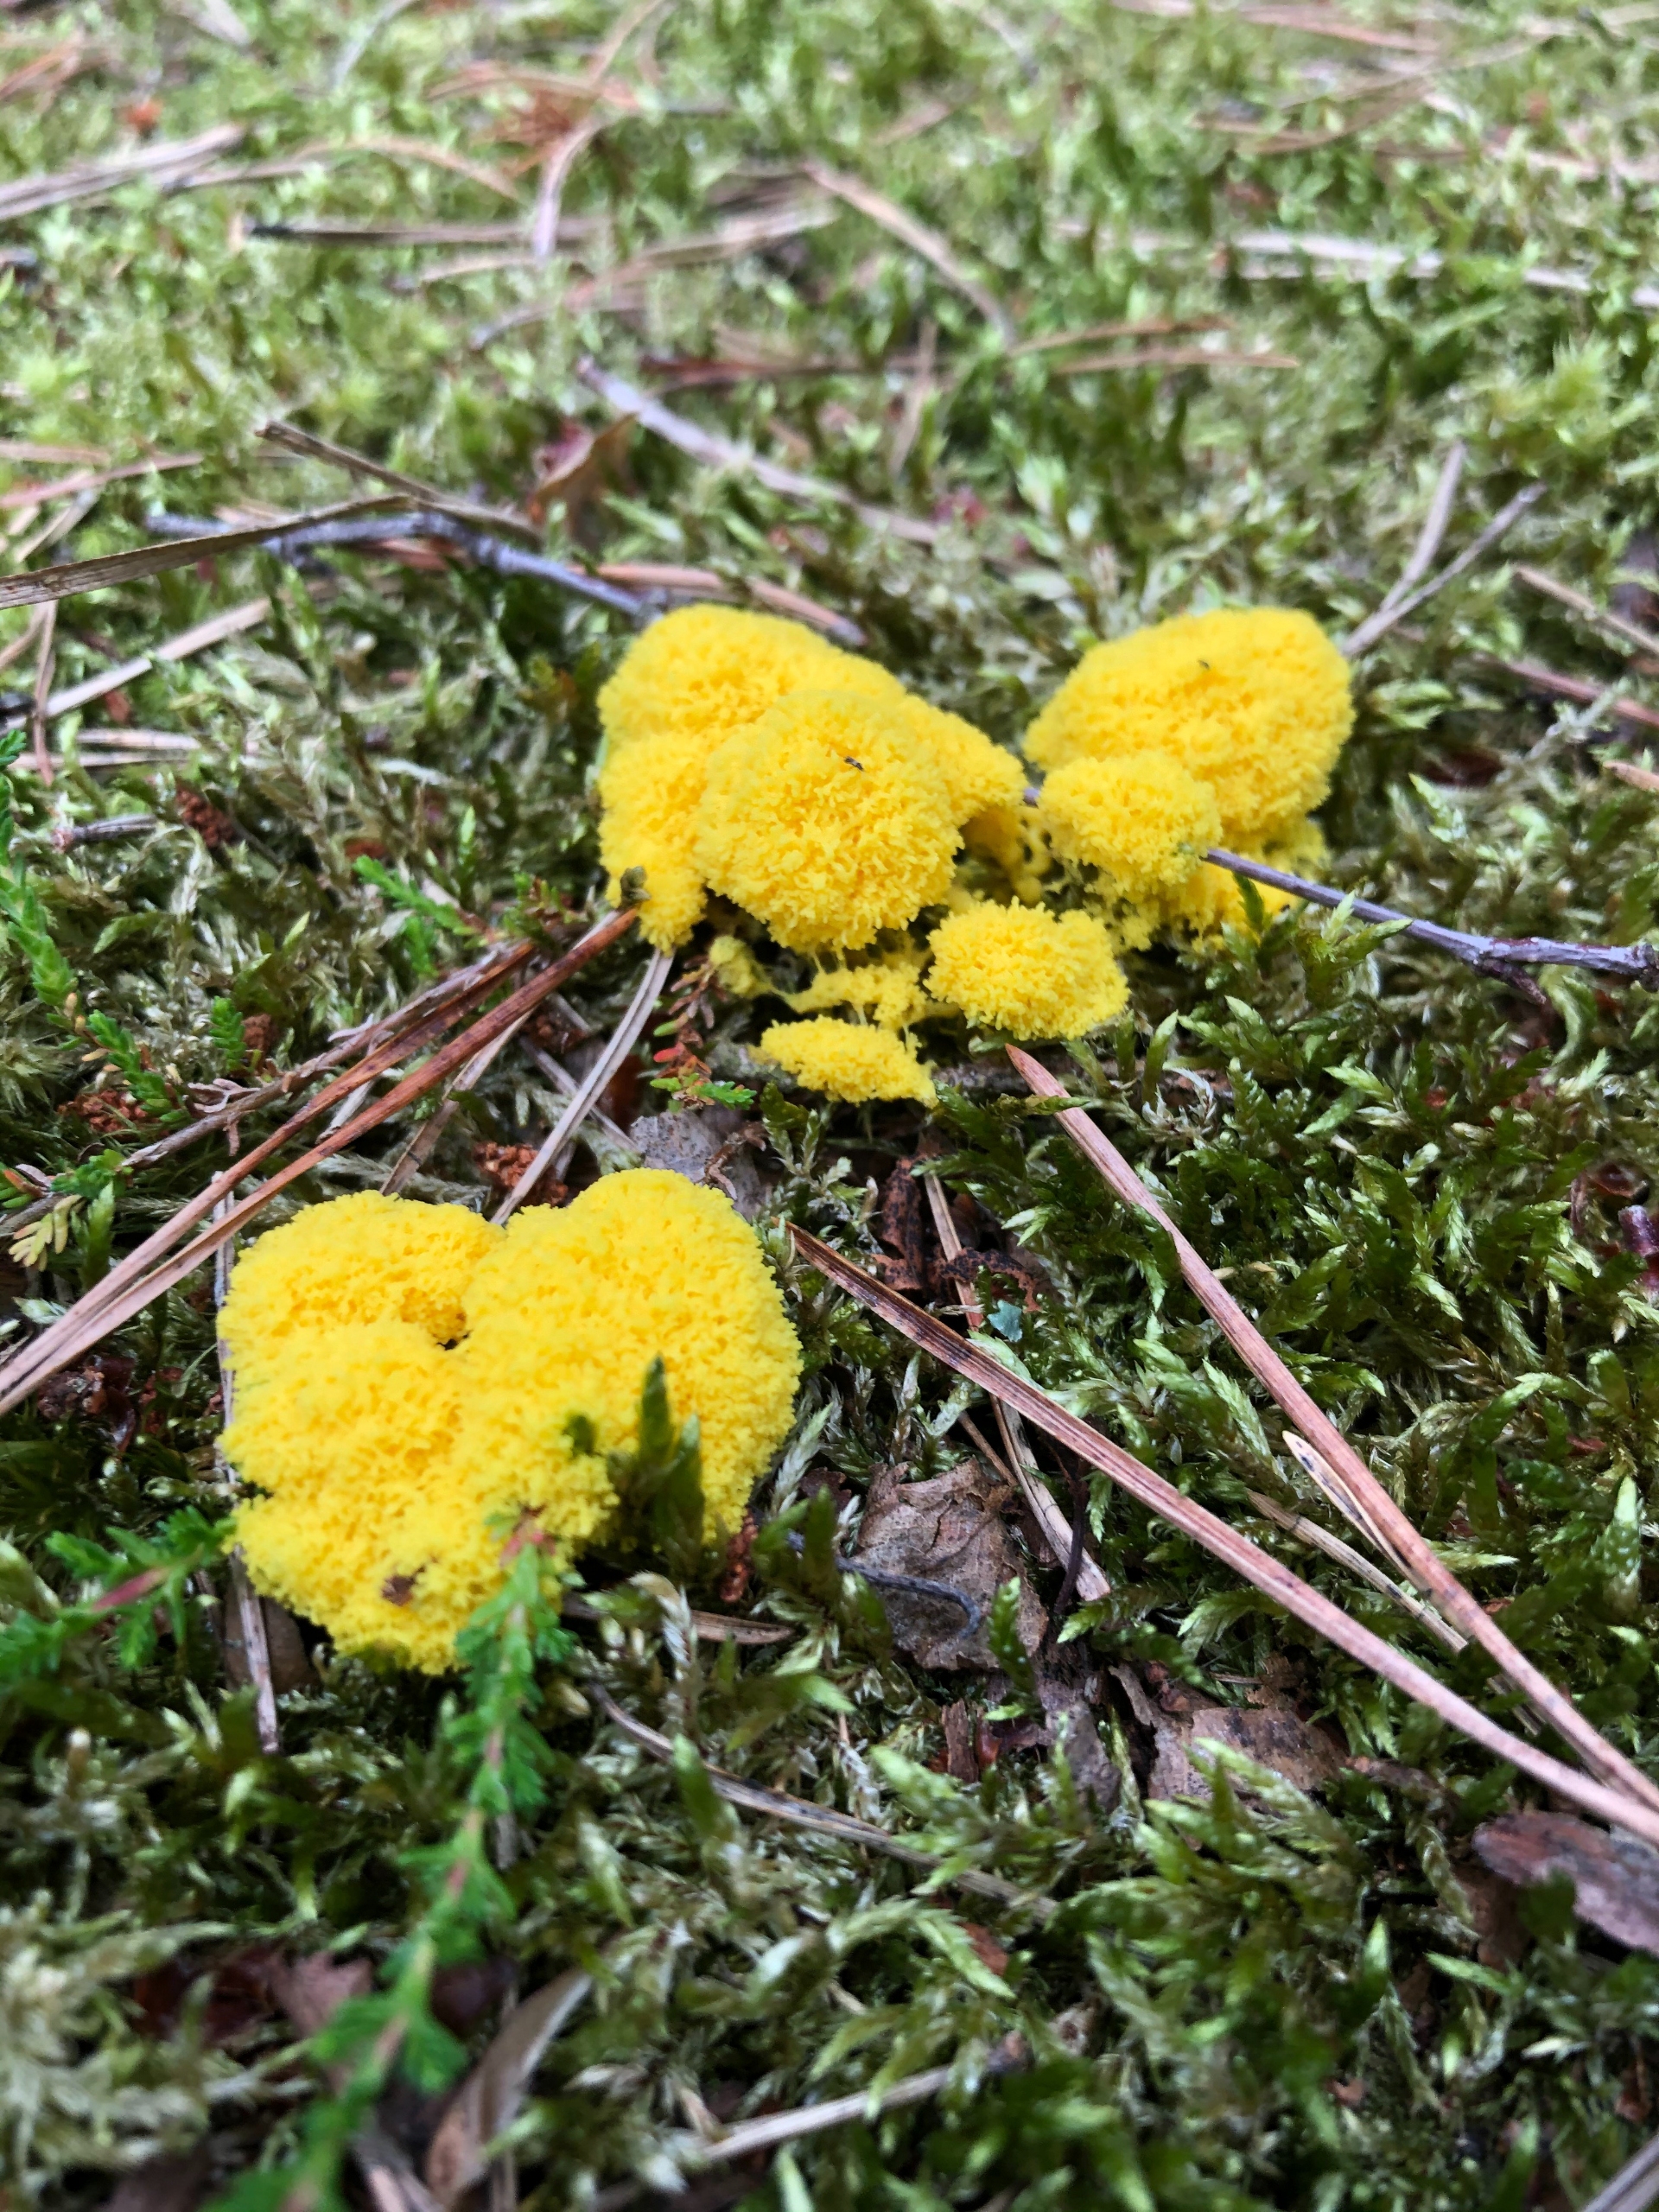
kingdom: Protozoa
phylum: Mycetozoa
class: Myxomycetes
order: Physarales
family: Physaraceae
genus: Fuligo
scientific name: Fuligo septica
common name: Gul troldsmør
